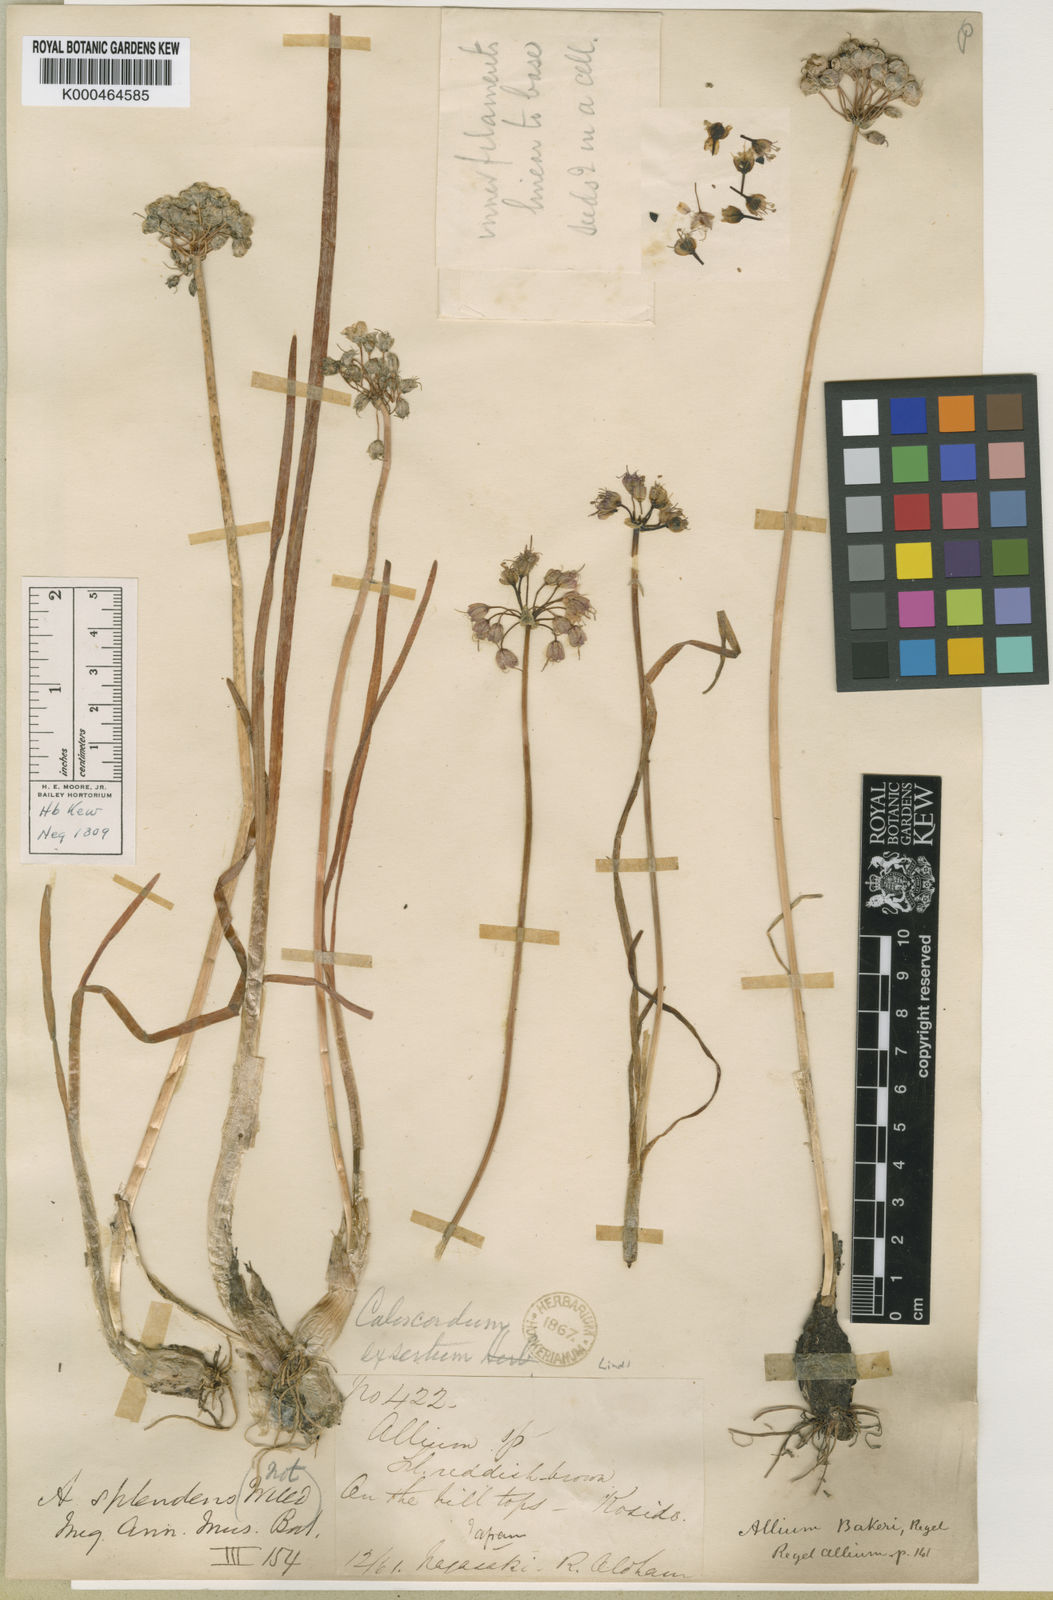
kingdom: Plantae
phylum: Tracheophyta
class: Liliopsida
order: Asparagales
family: Amaryllidaceae
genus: Allium
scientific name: Allium chinense
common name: Japanese scallion
